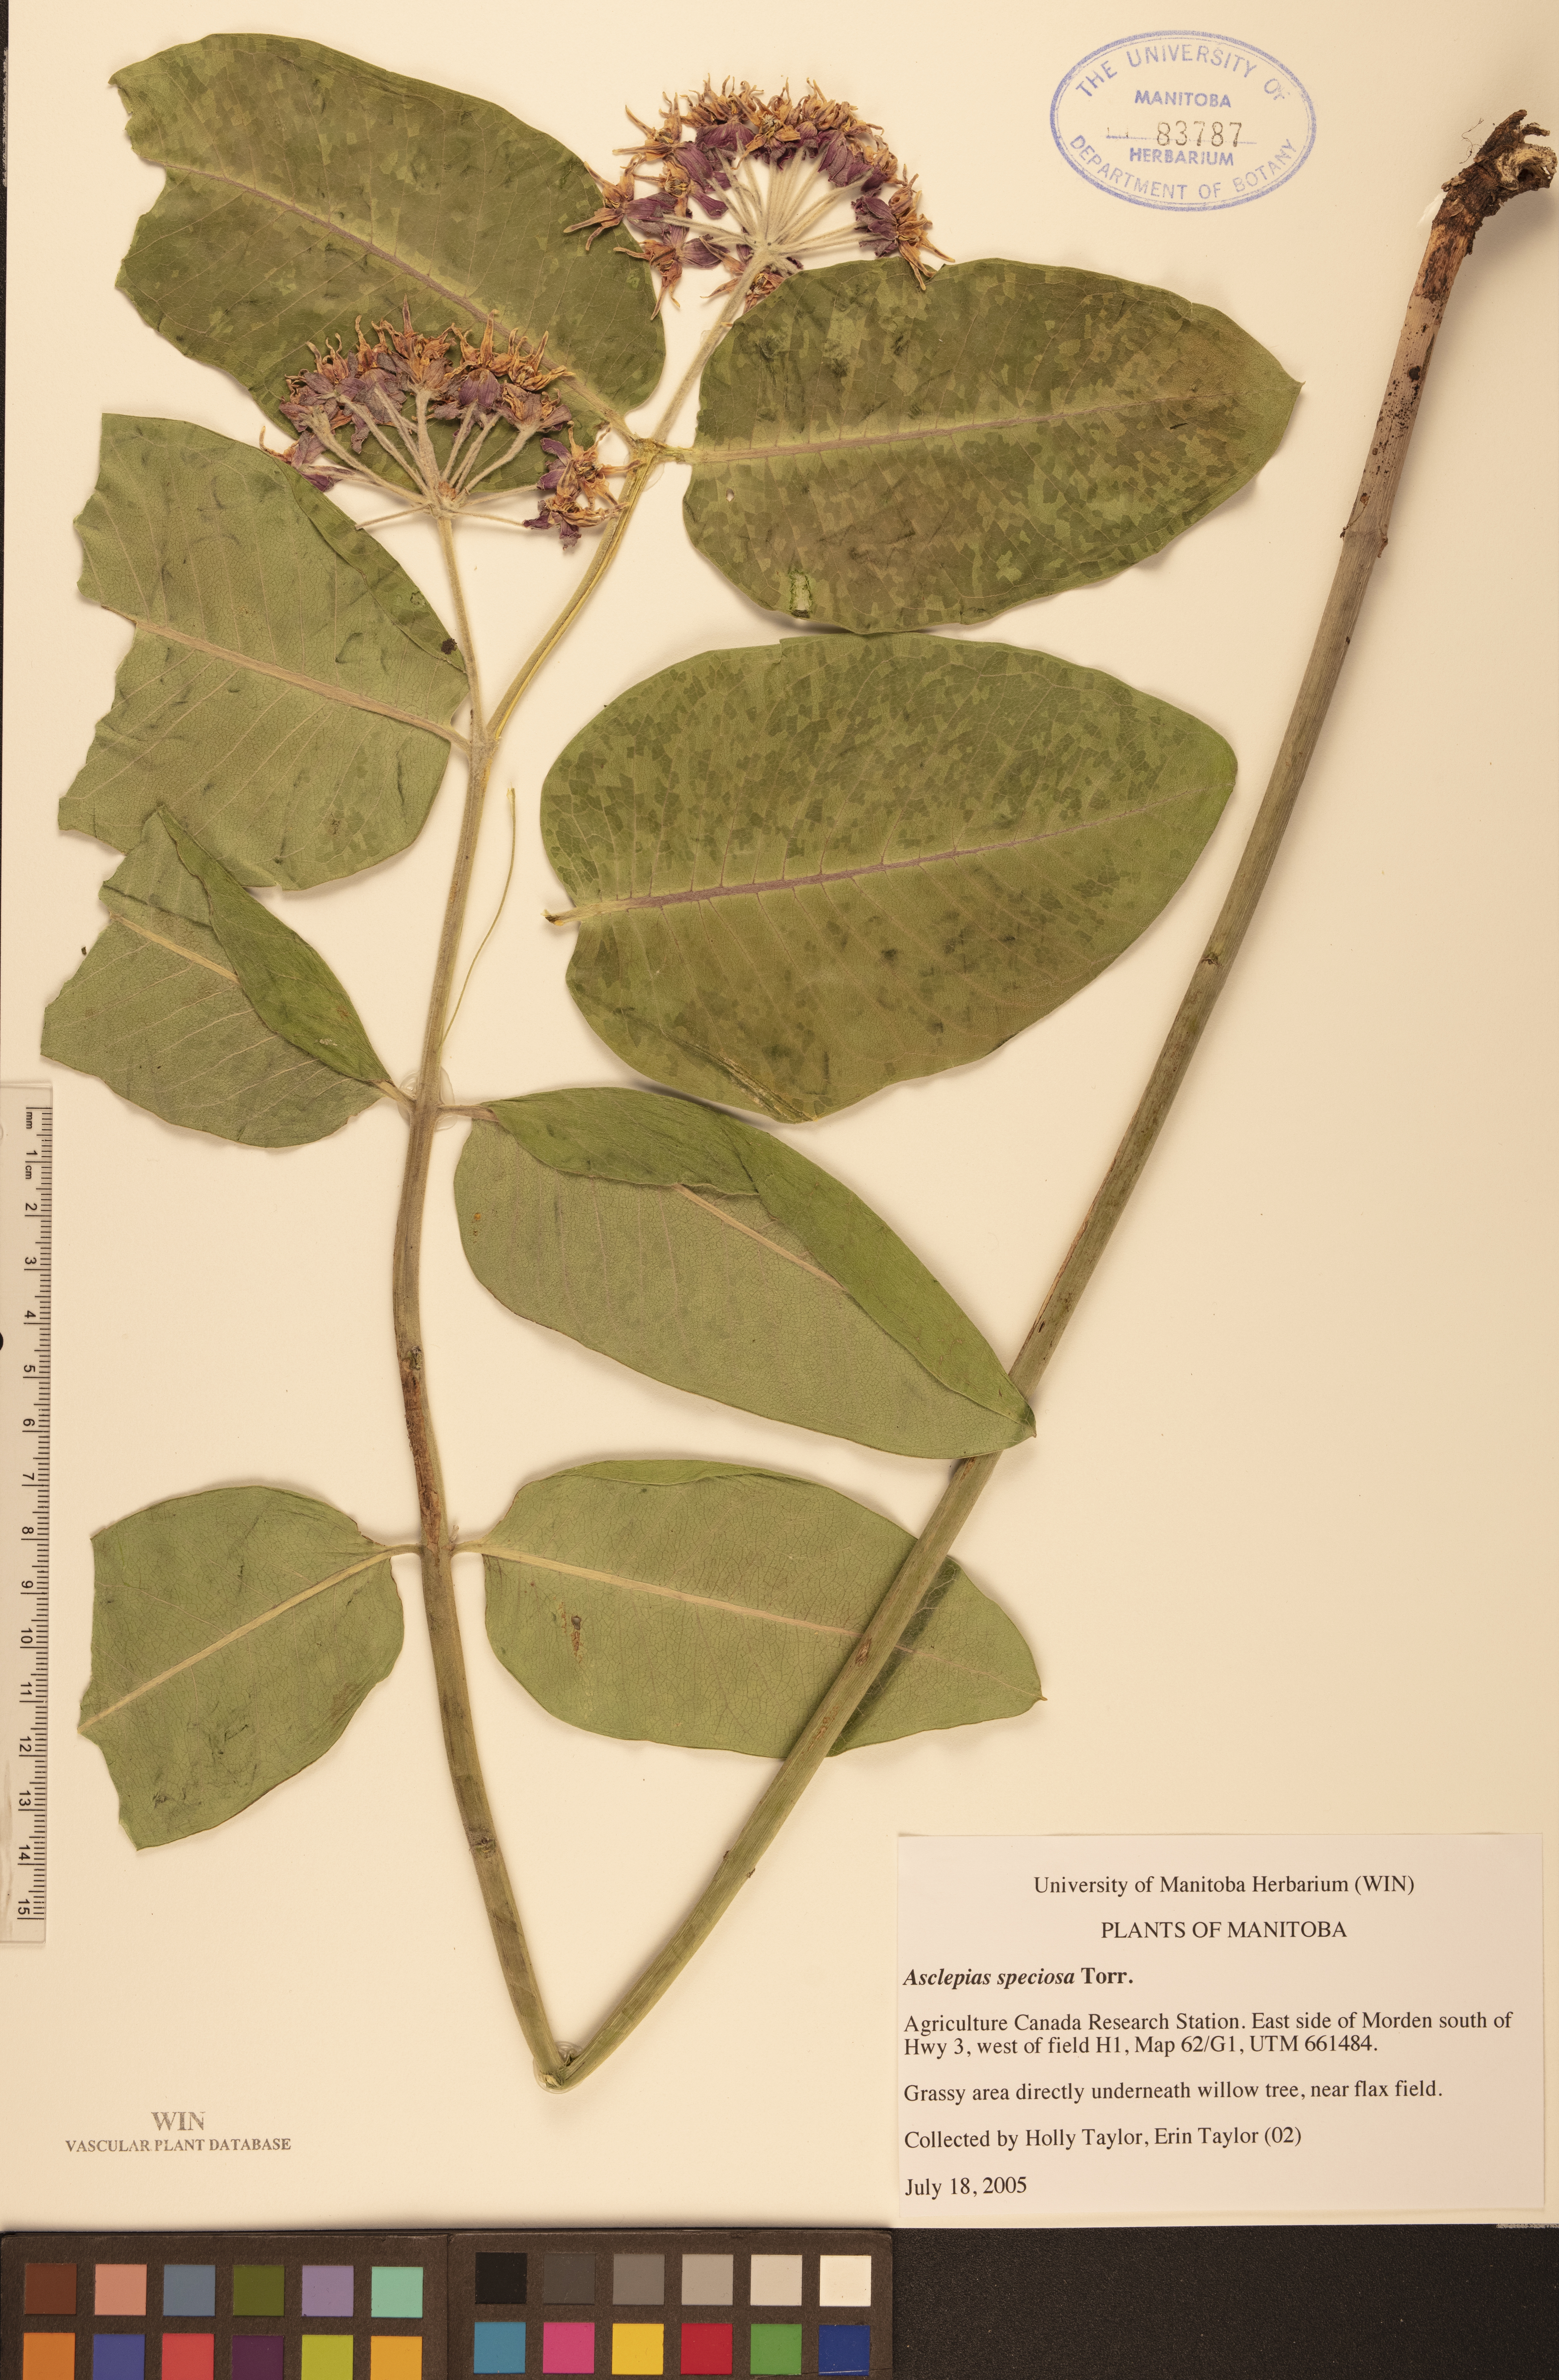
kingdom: Plantae
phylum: Tracheophyta
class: Magnoliopsida
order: Gentianales
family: Apocynaceae
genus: Asclepias
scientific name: Asclepias speciosa
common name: Showy milkweed
